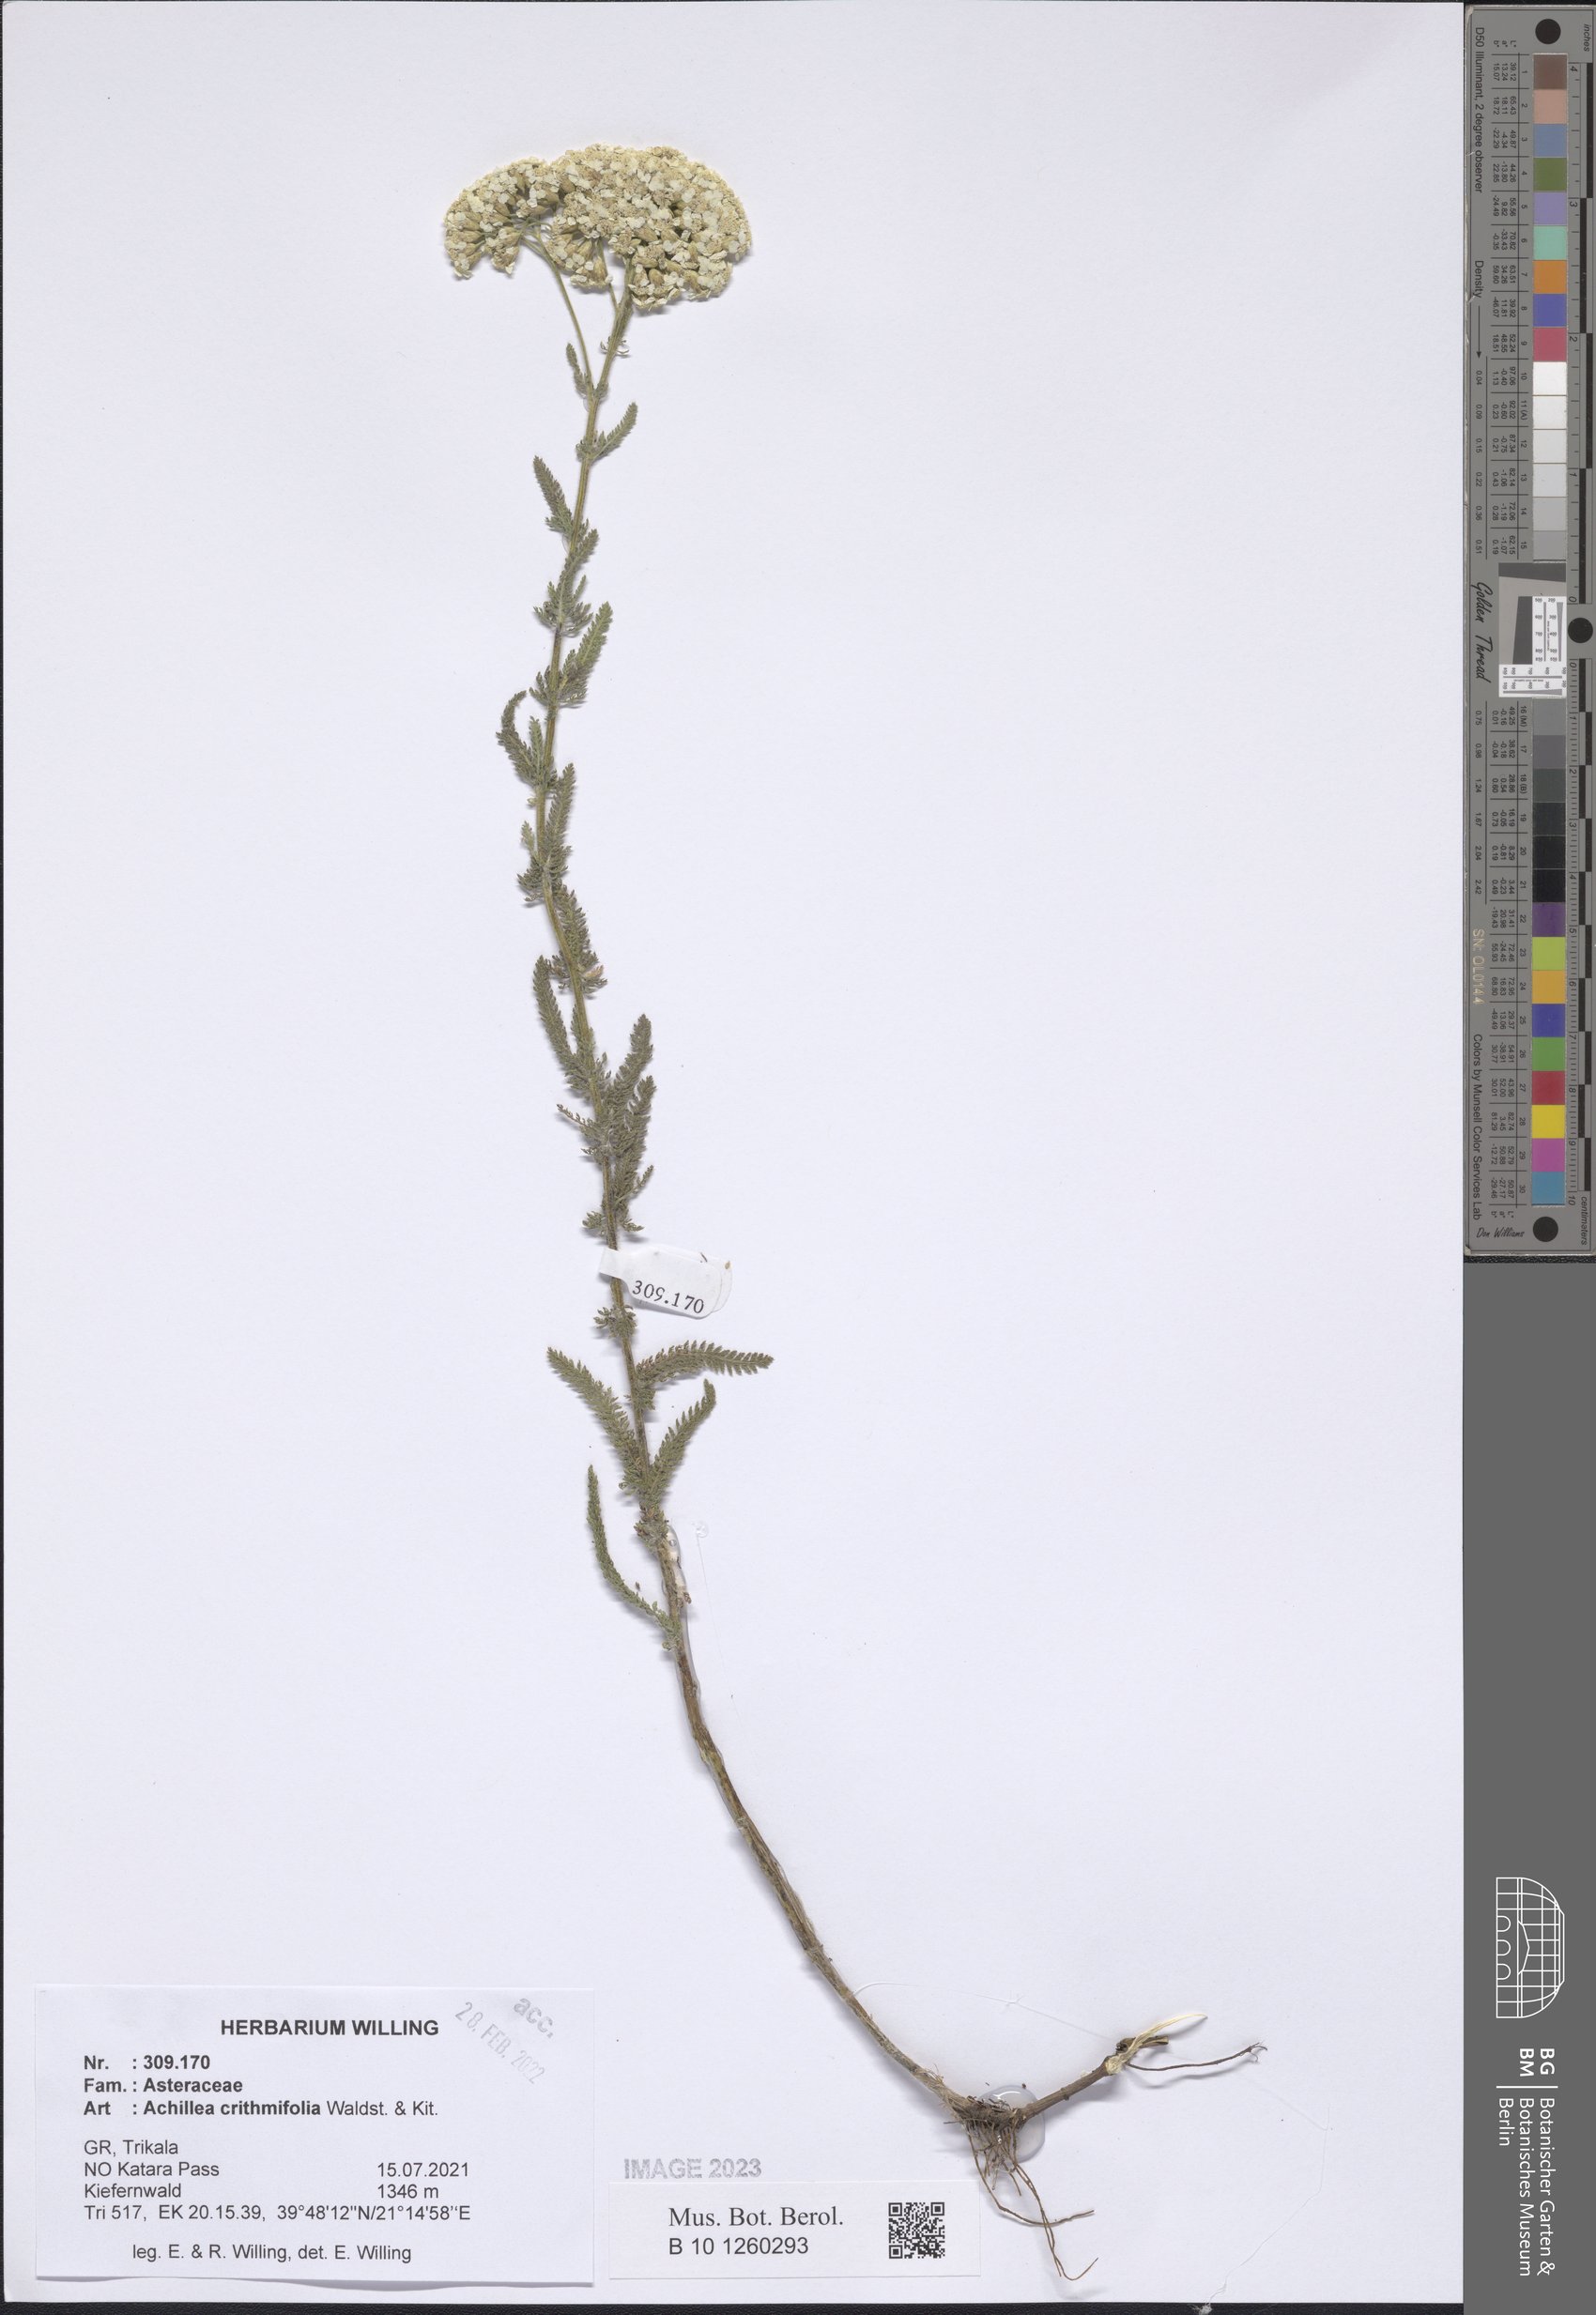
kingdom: Plantae
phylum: Tracheophyta
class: Magnoliopsida
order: Asterales
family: Asteraceae
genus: Achillea
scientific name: Achillea crithmifolia
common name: Yarrow
